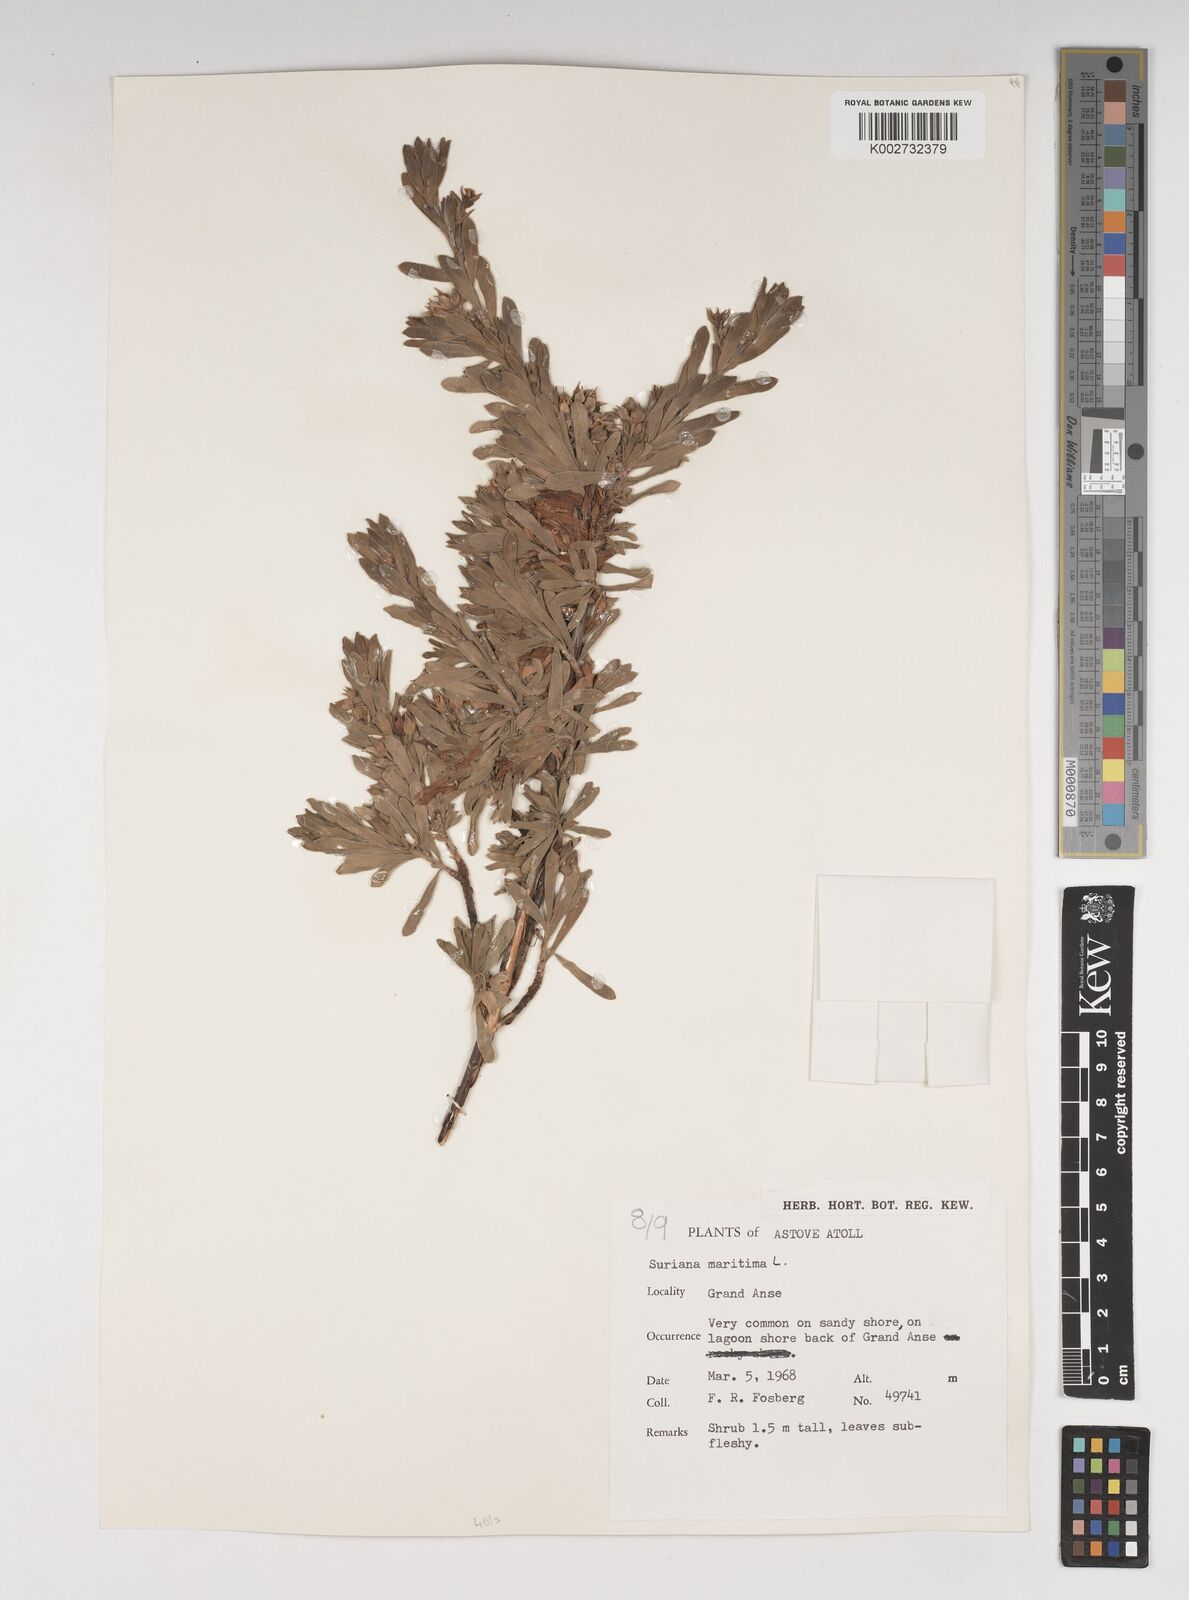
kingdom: Plantae
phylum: Tracheophyta
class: Magnoliopsida
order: Fabales
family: Surianaceae
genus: Suriana
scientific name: Suriana maritima
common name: Bay-cedar
